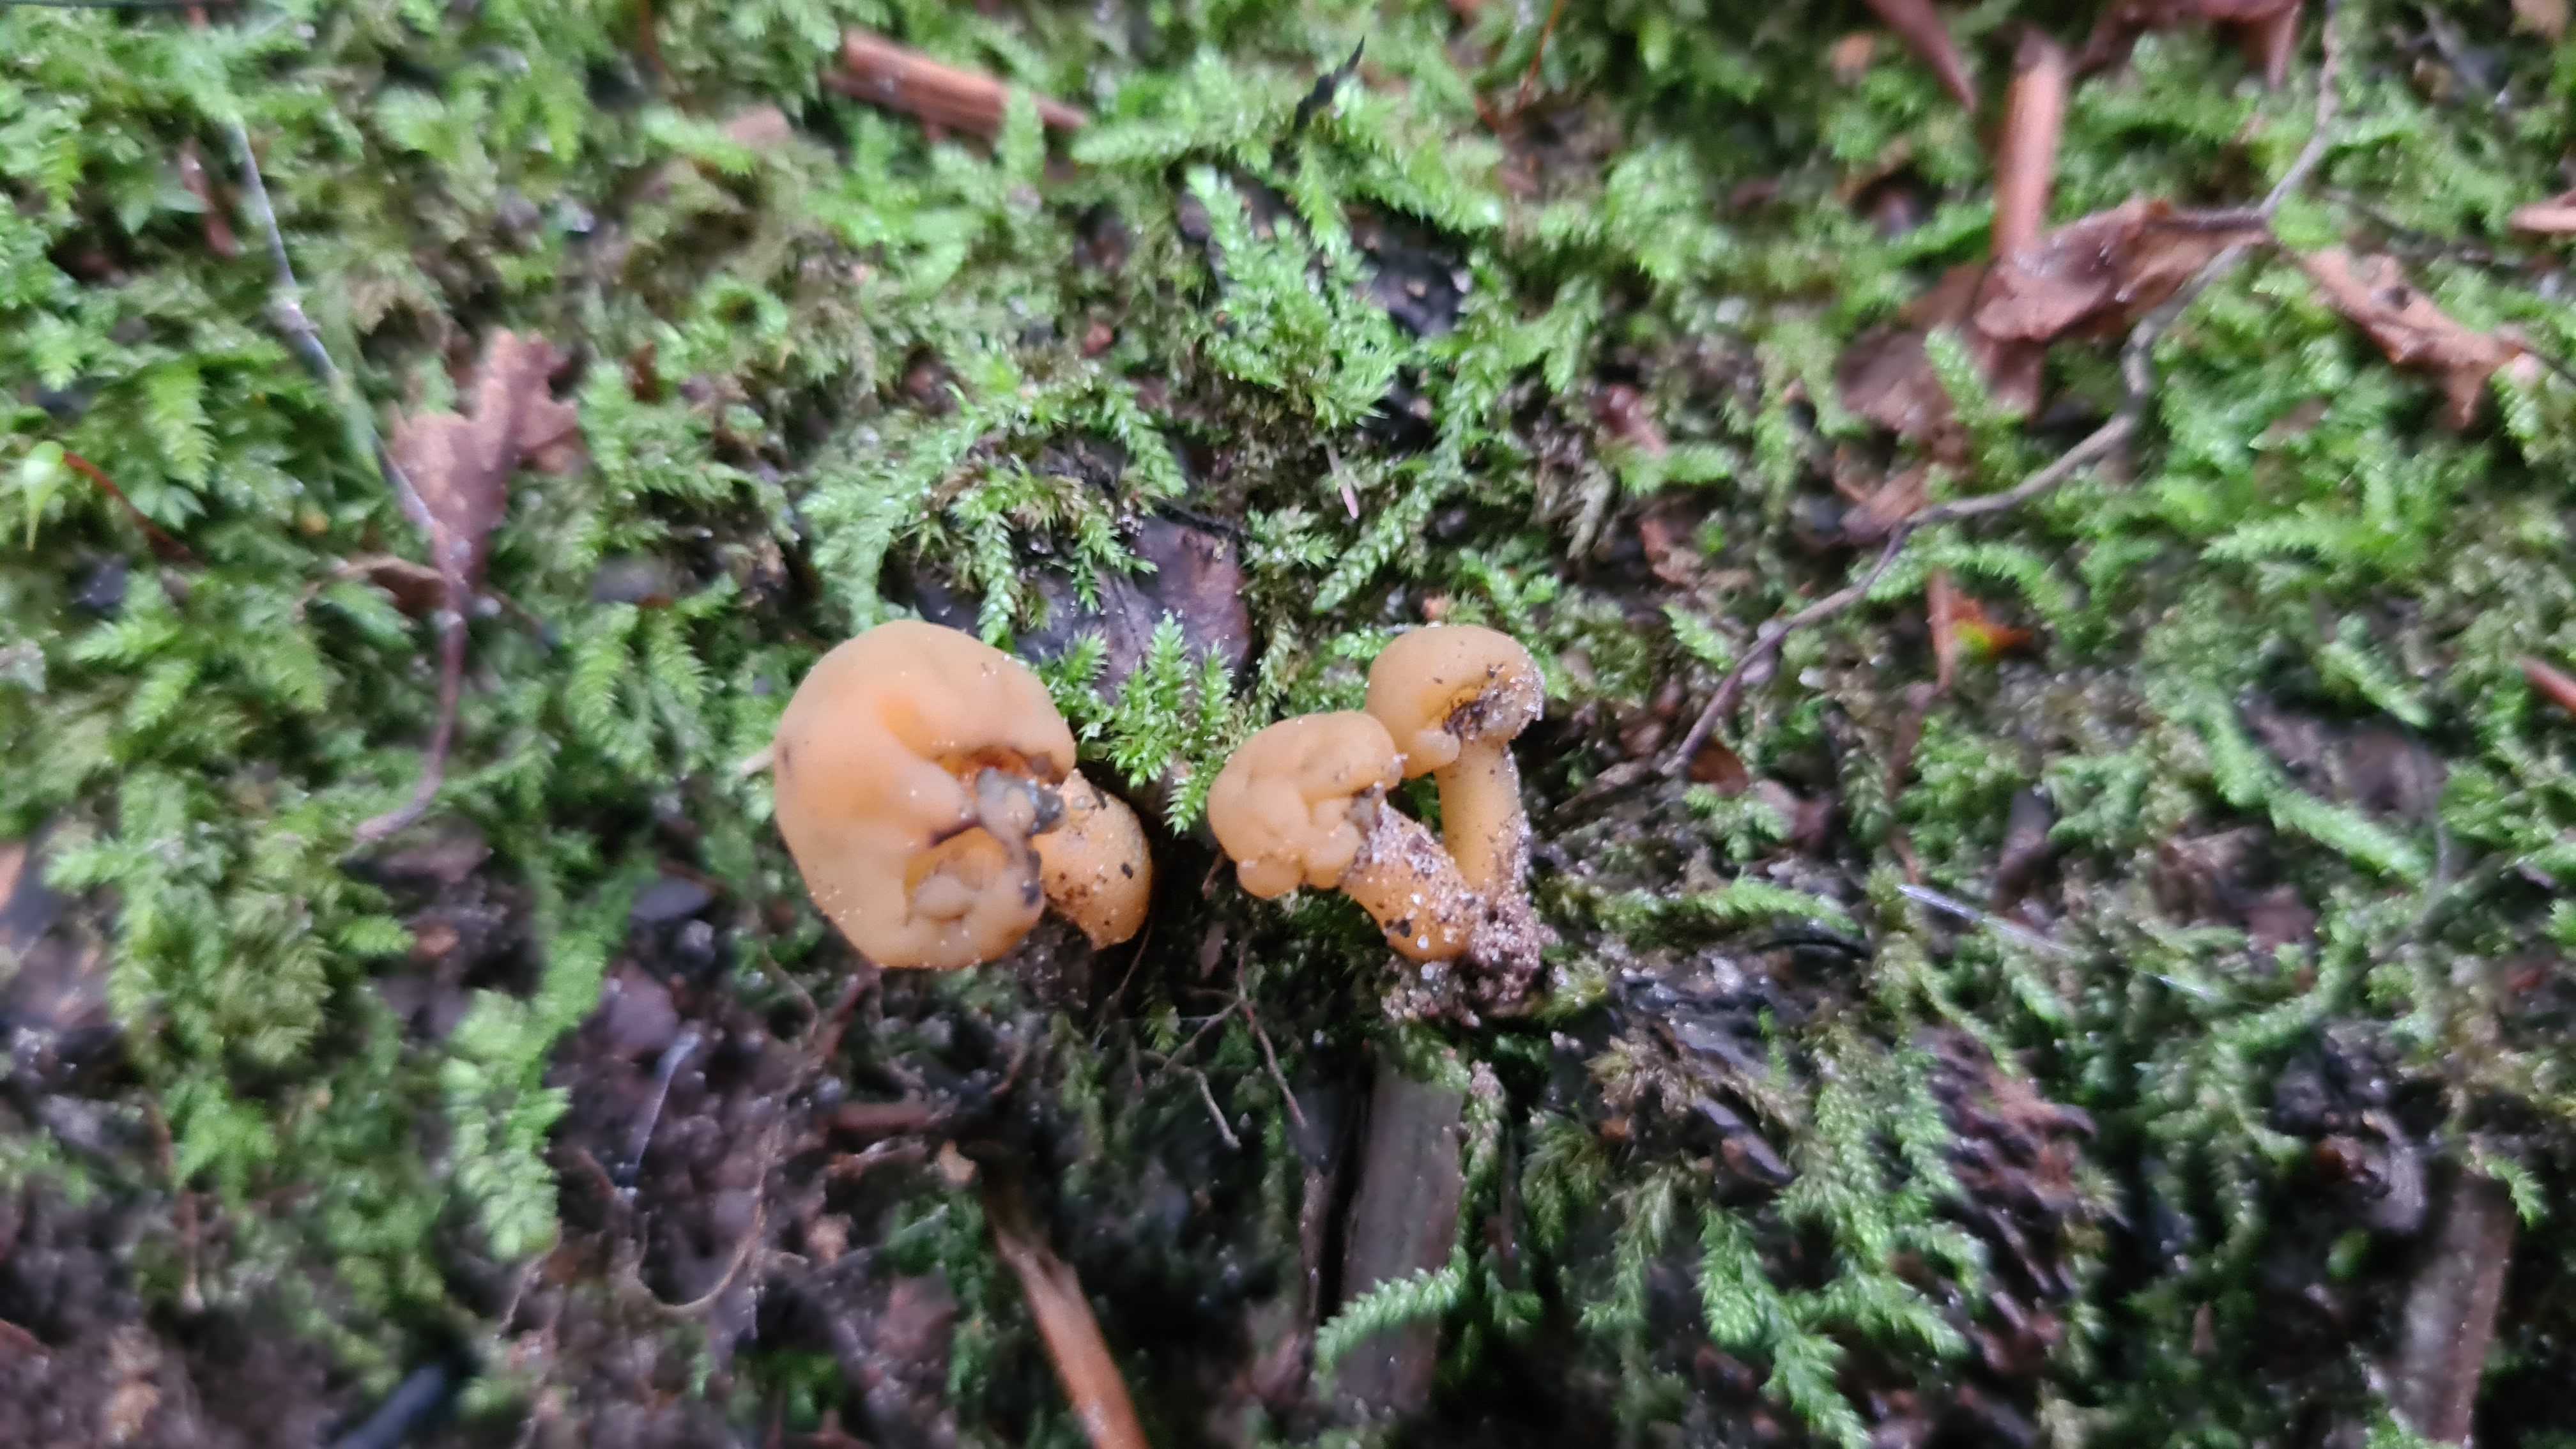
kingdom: Fungi
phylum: Ascomycota
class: Leotiomycetes
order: Leotiales
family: Leotiaceae
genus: Leotia
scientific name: Leotia lubrica
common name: ravsvamp
